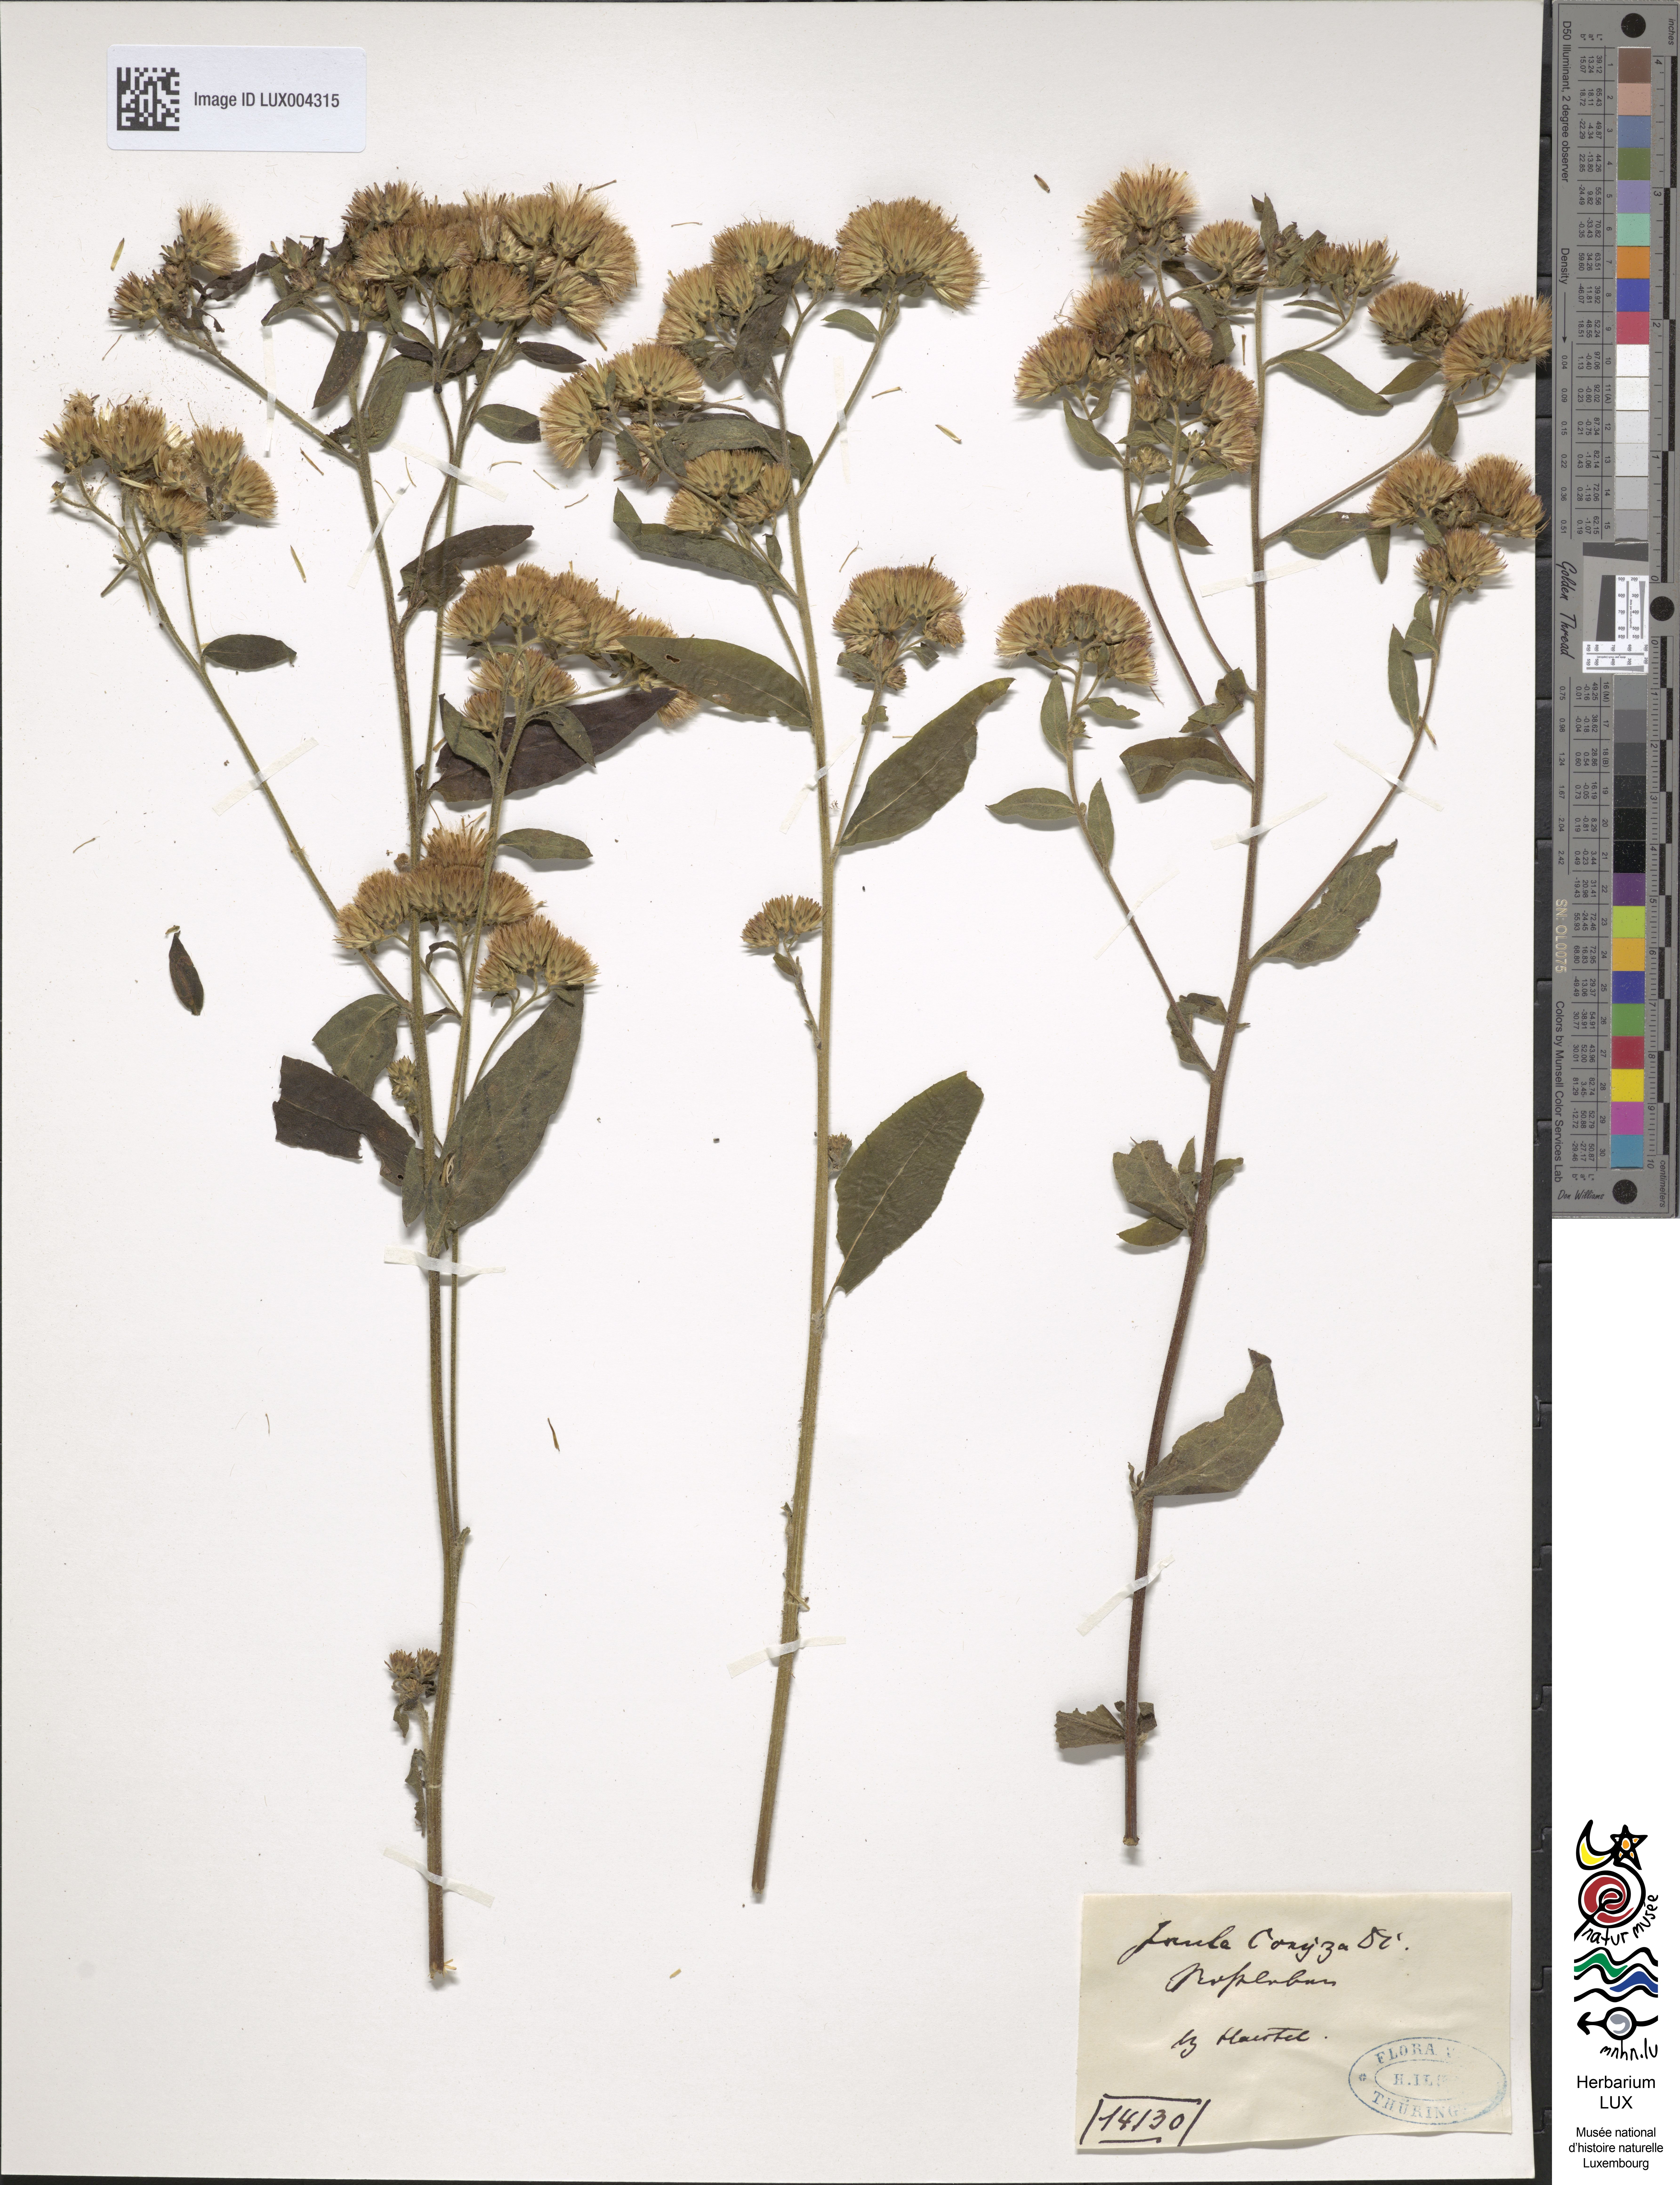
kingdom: Plantae
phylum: Tracheophyta
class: Magnoliopsida
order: Asterales
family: Asteraceae
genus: Pentanema
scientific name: Pentanema squarrosum
